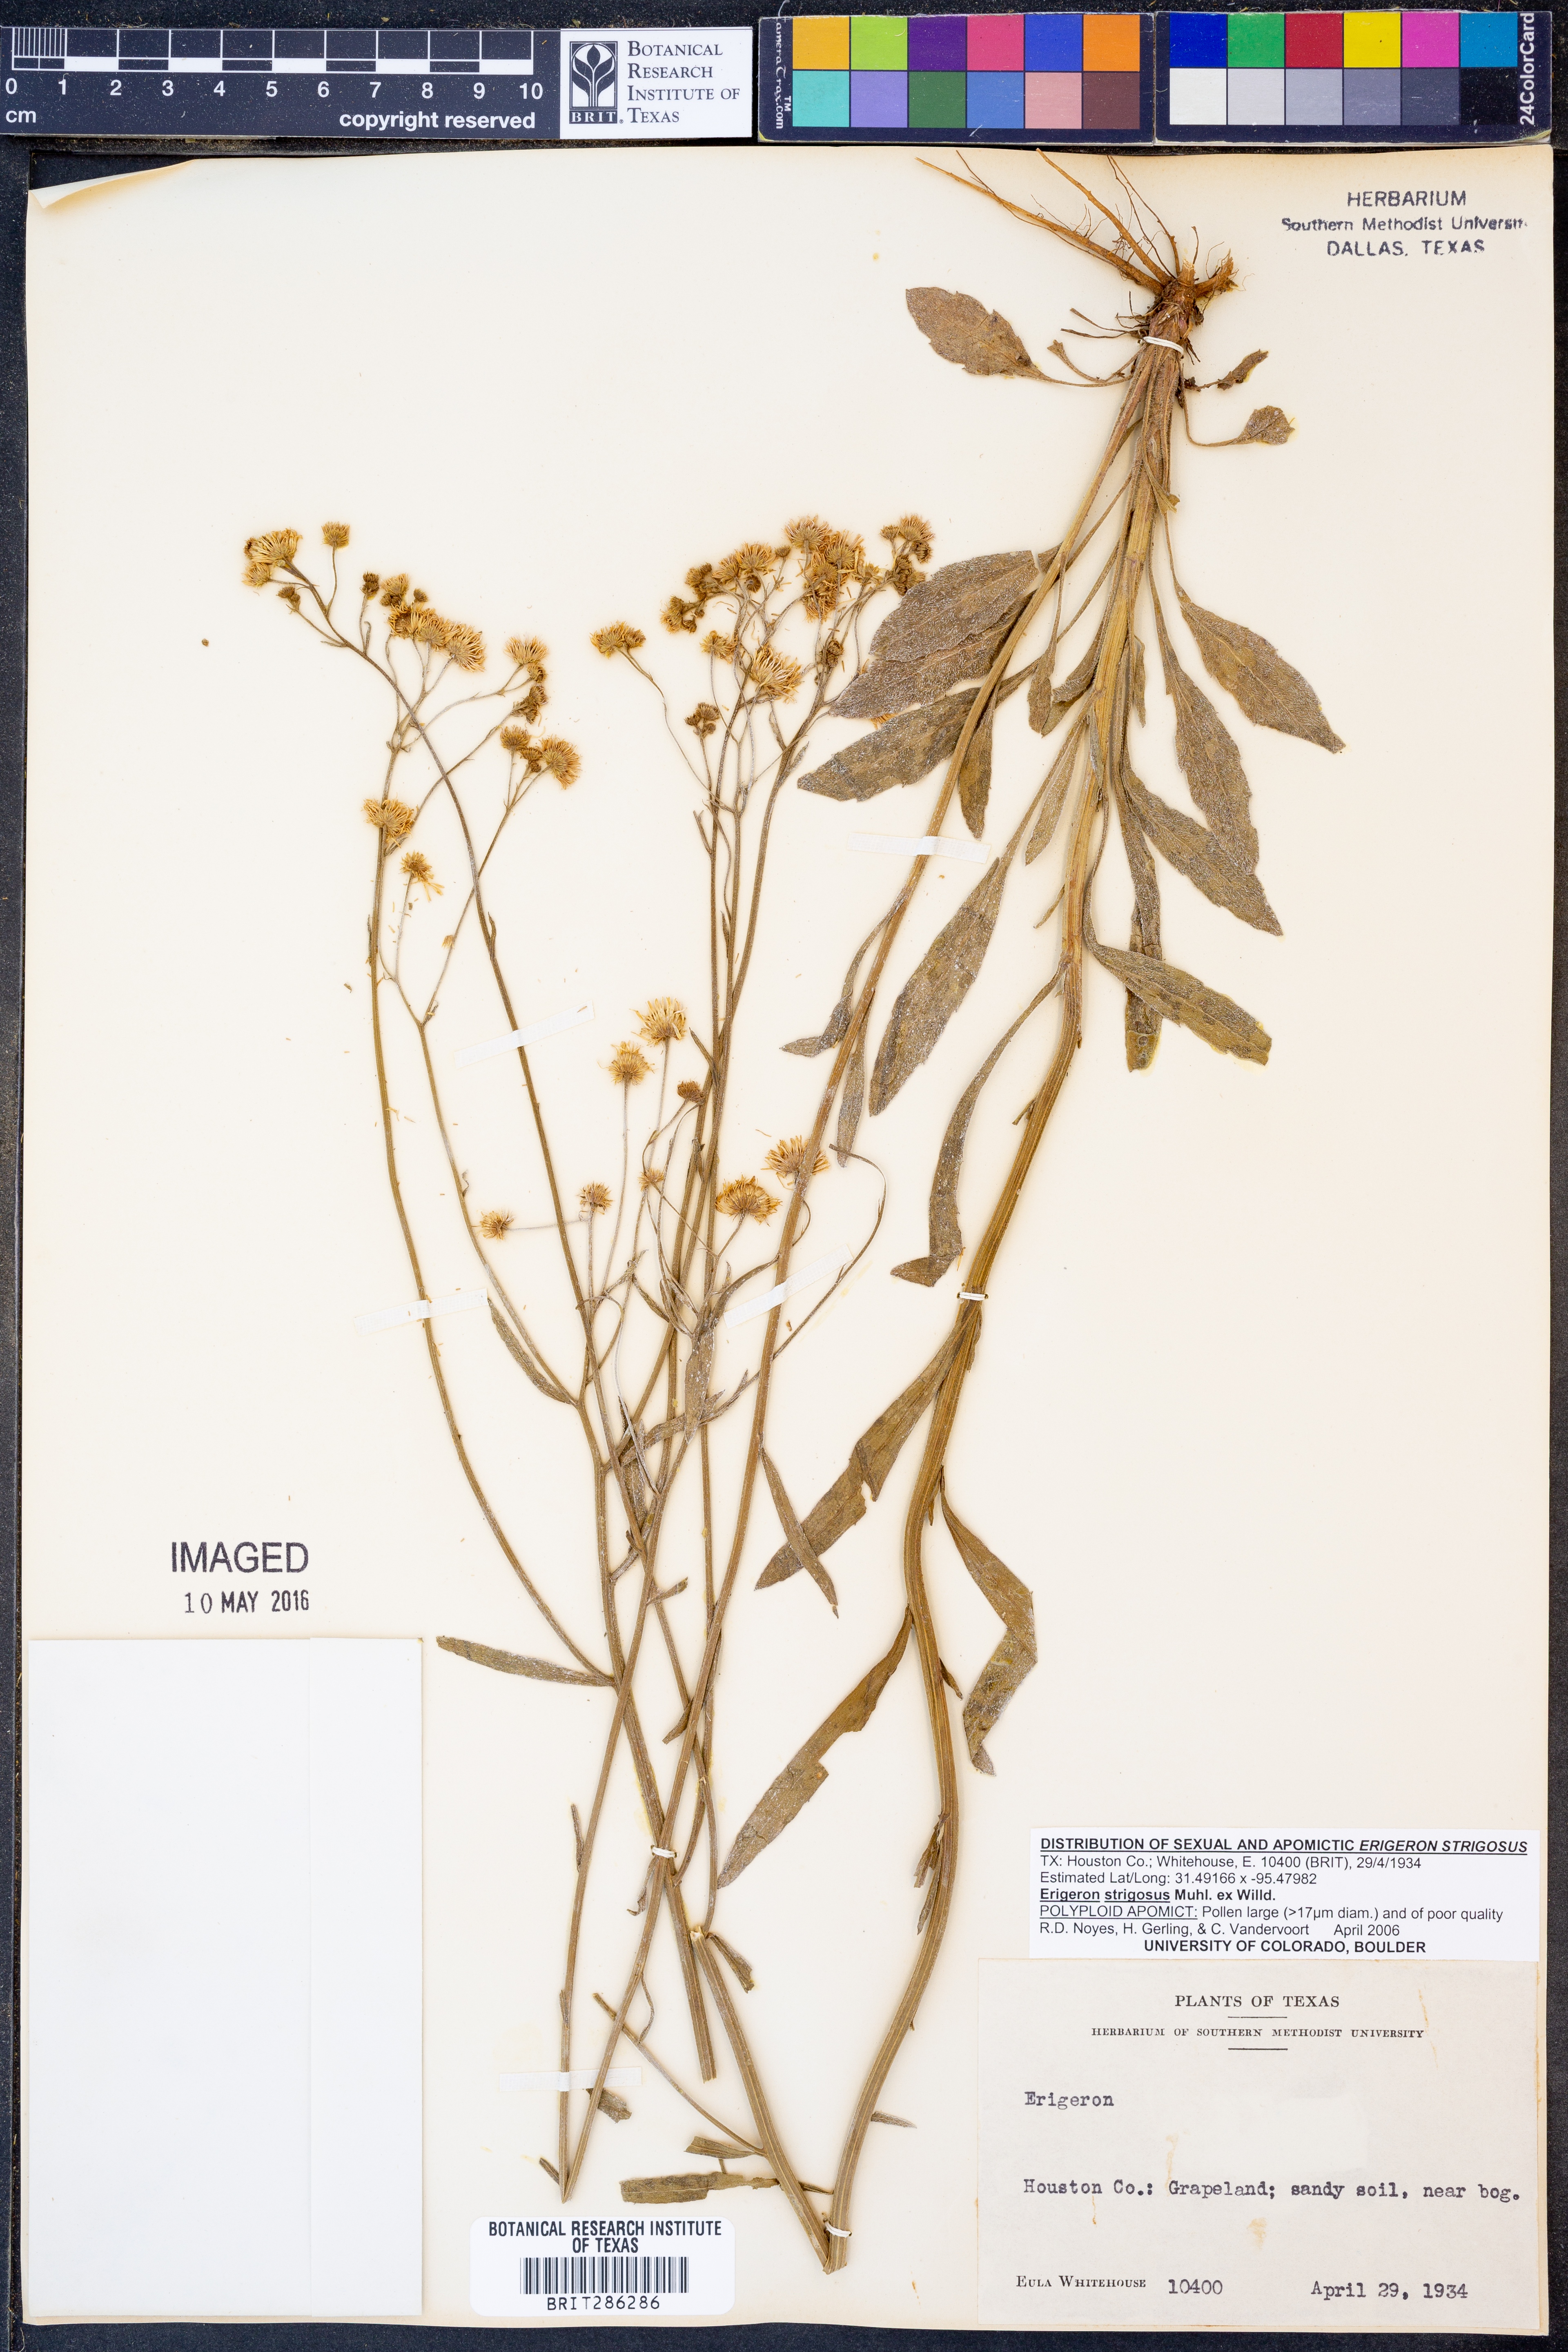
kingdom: Plantae
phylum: Tracheophyta
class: Magnoliopsida
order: Asterales
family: Asteraceae
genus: Erigeron
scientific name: Erigeron strigosus
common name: Common eastern fleabane
